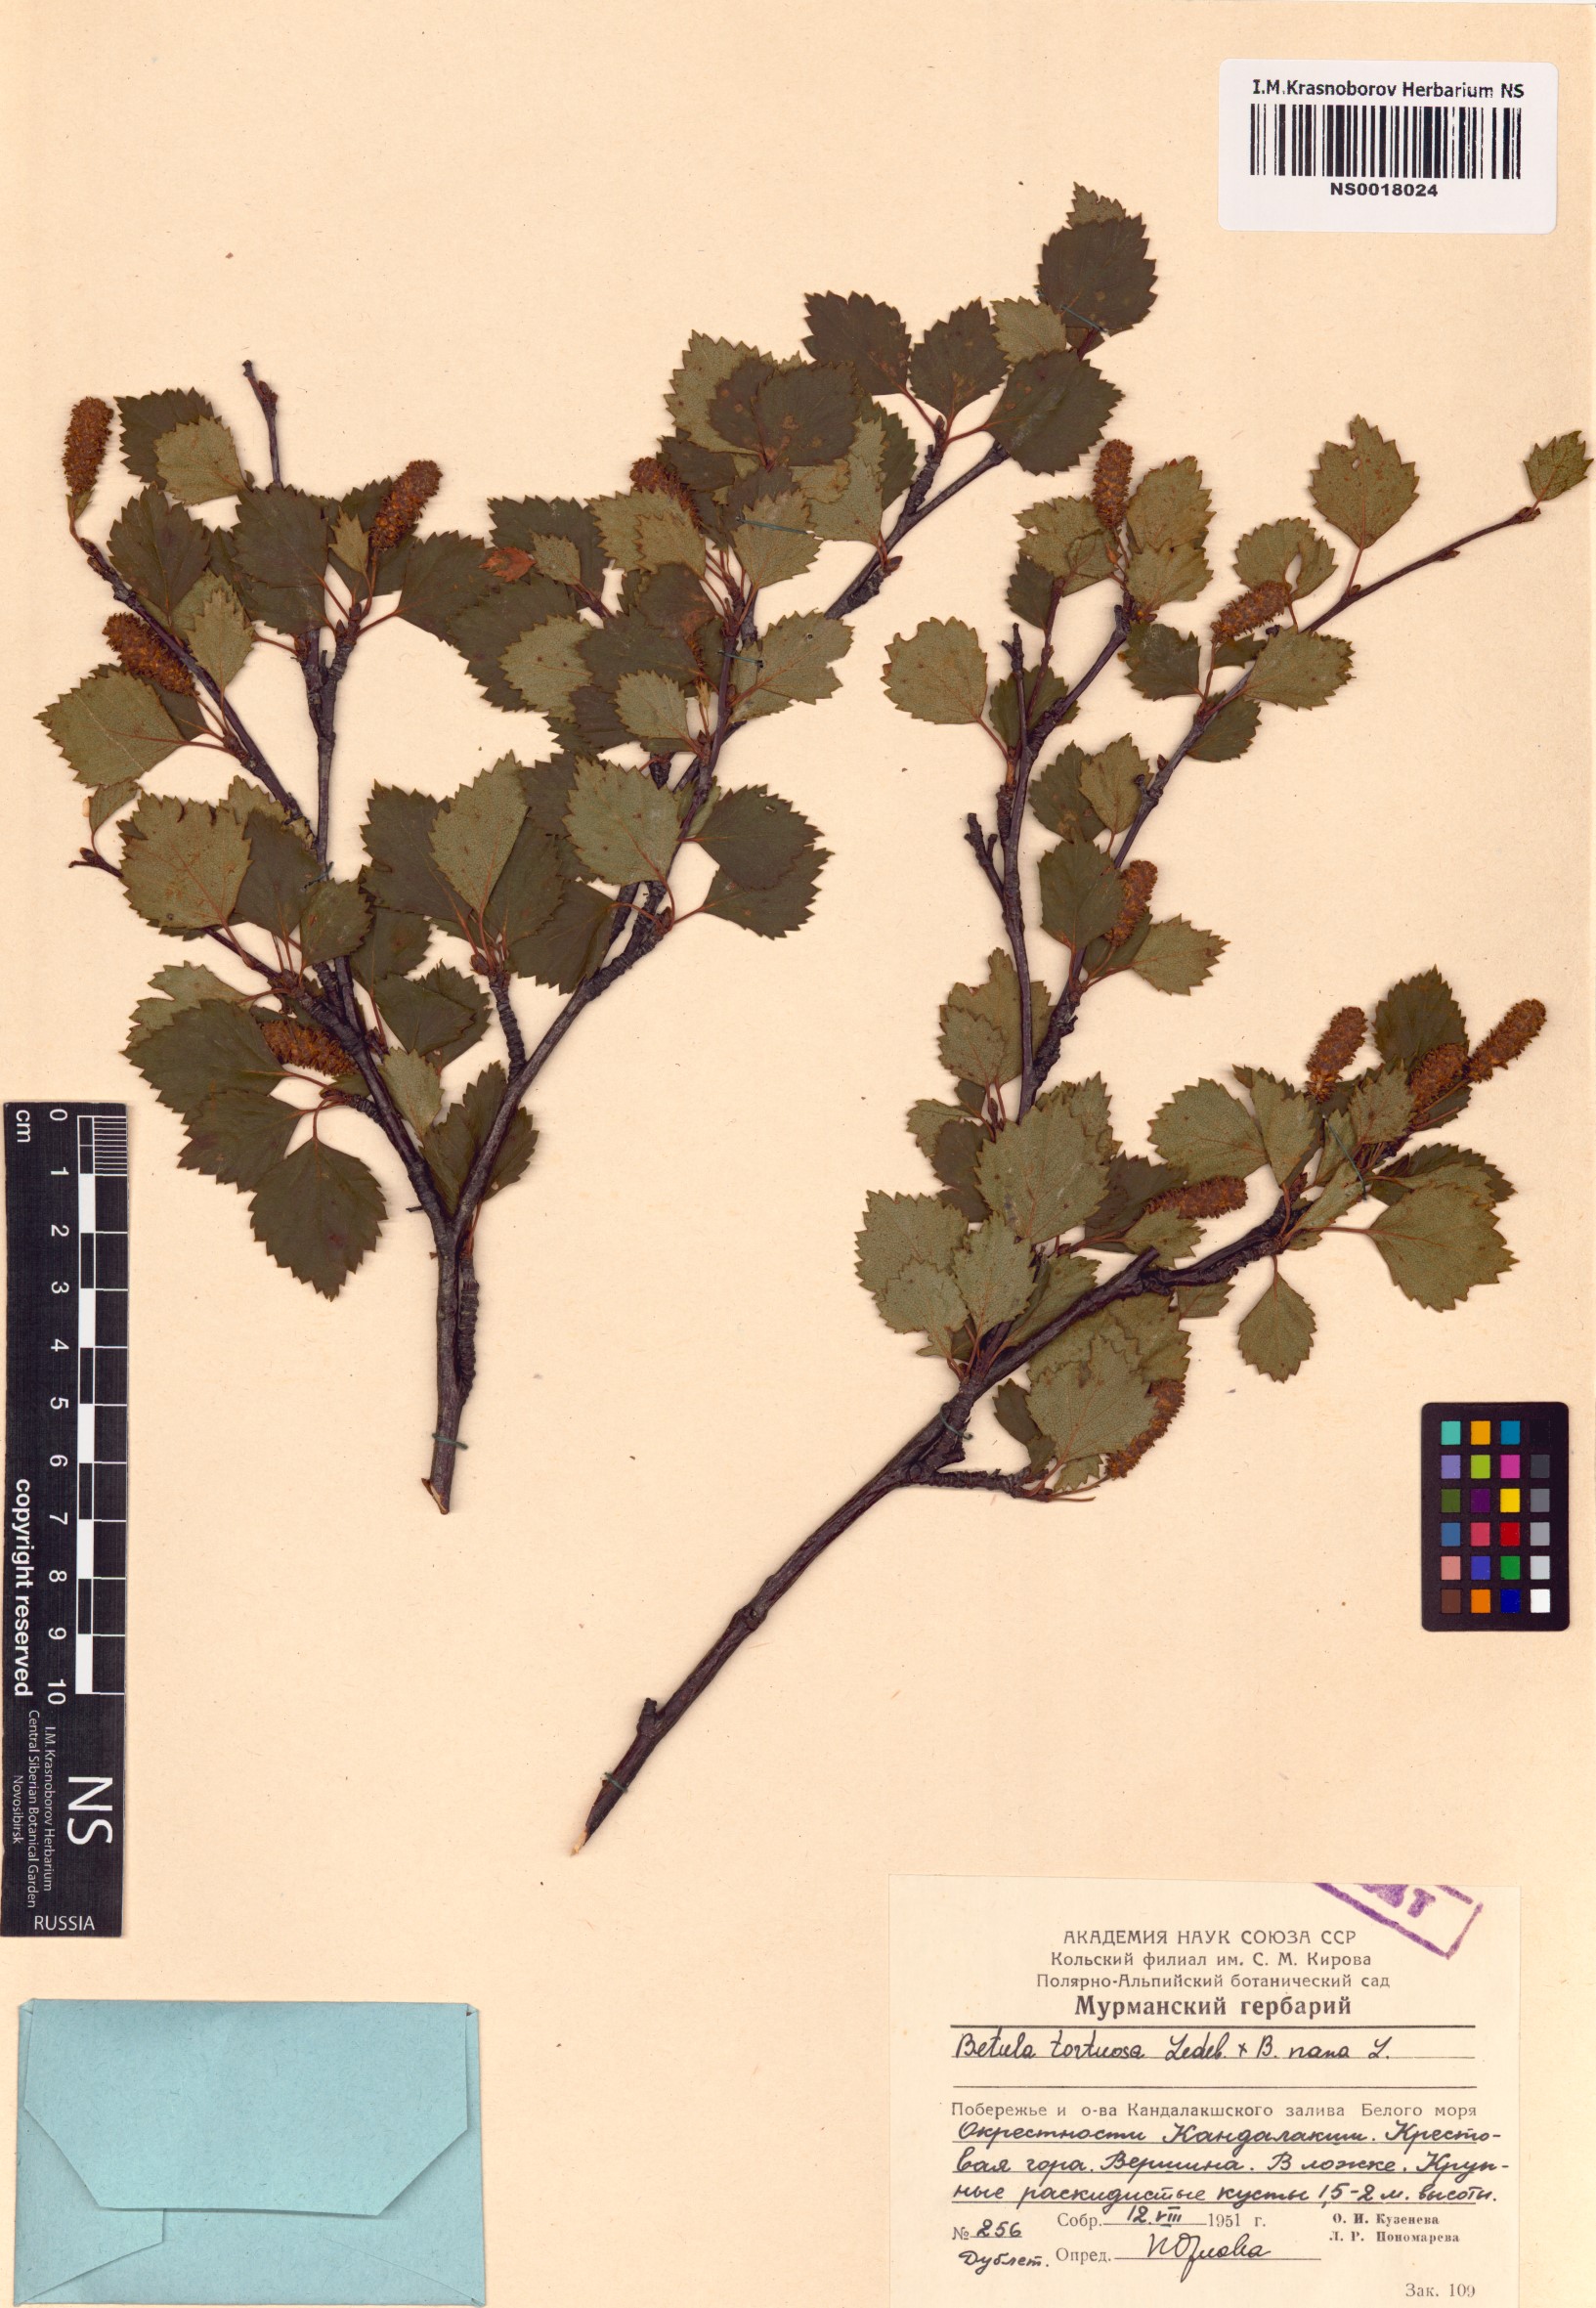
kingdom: Plantae
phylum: Tracheophyta
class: Magnoliopsida
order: Fagales
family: Betulaceae
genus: Betula
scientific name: Betula pubescens
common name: Downy birch
